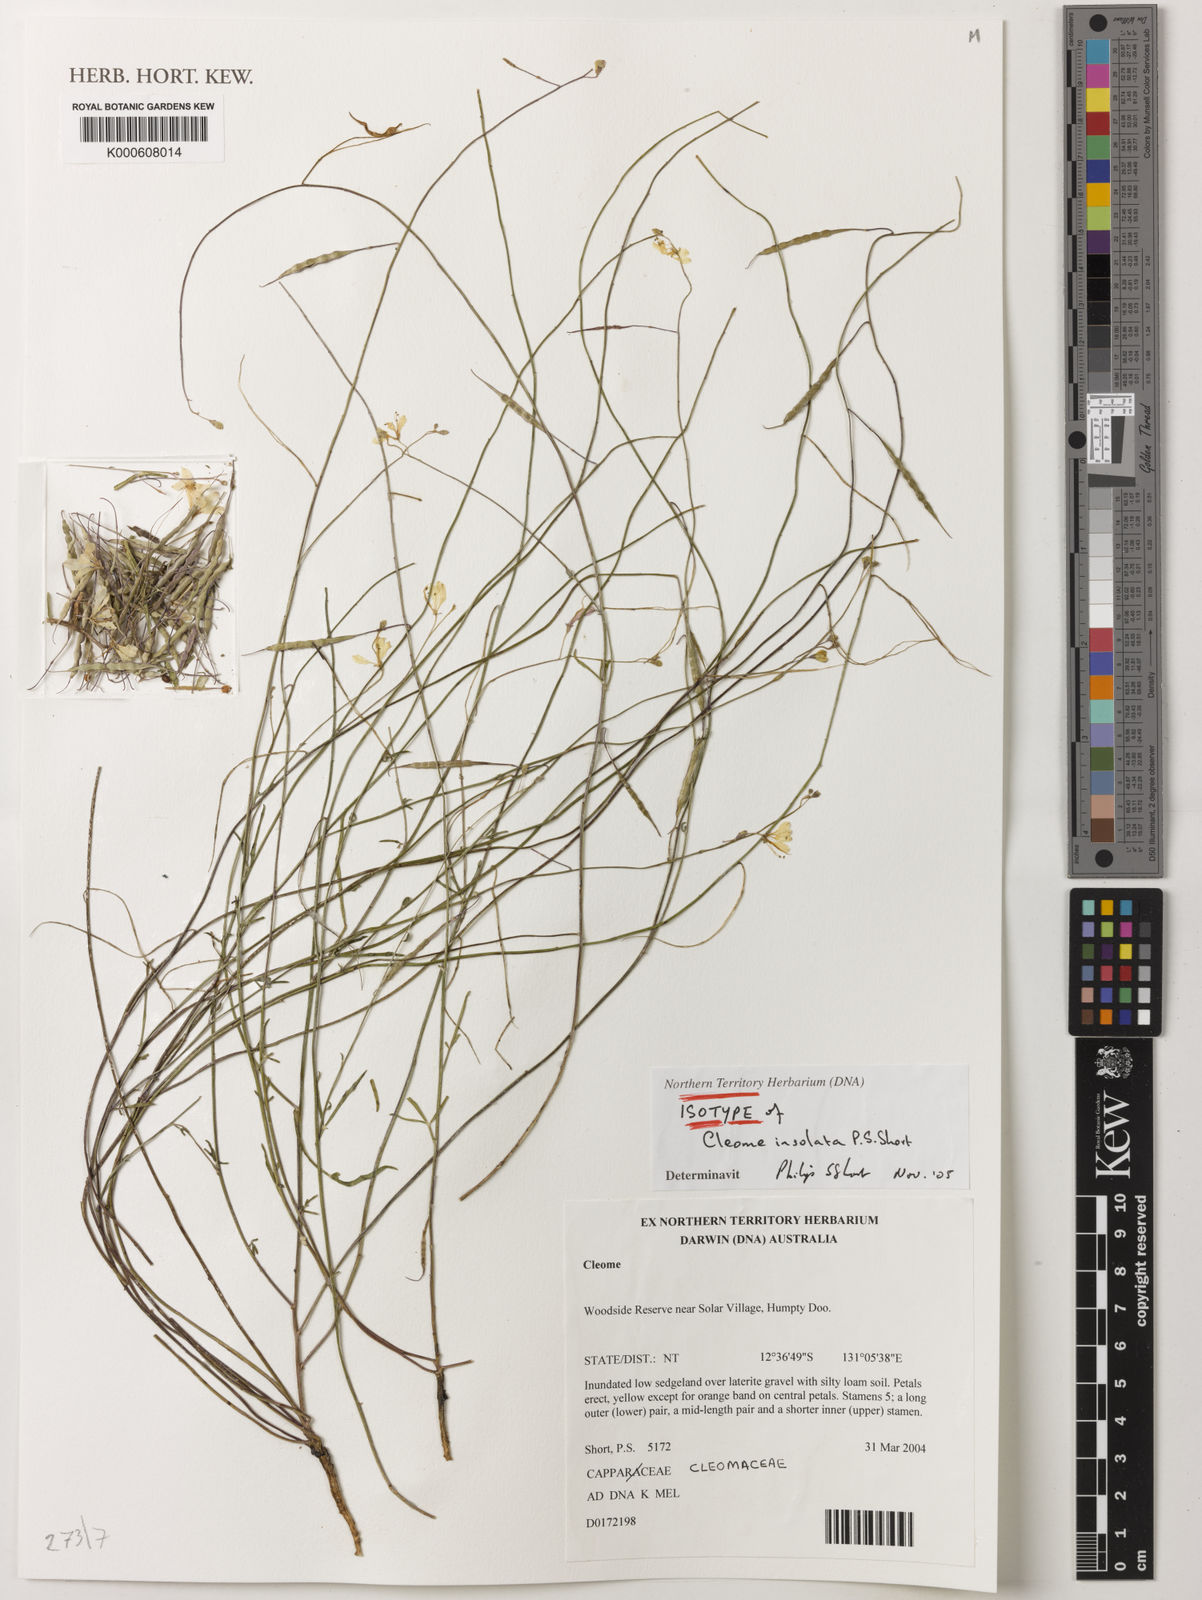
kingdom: Plantae
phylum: Tracheophyta
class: Magnoliopsida
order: Brassicales
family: Cleomaceae
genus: Arivela
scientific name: Arivela insolata
